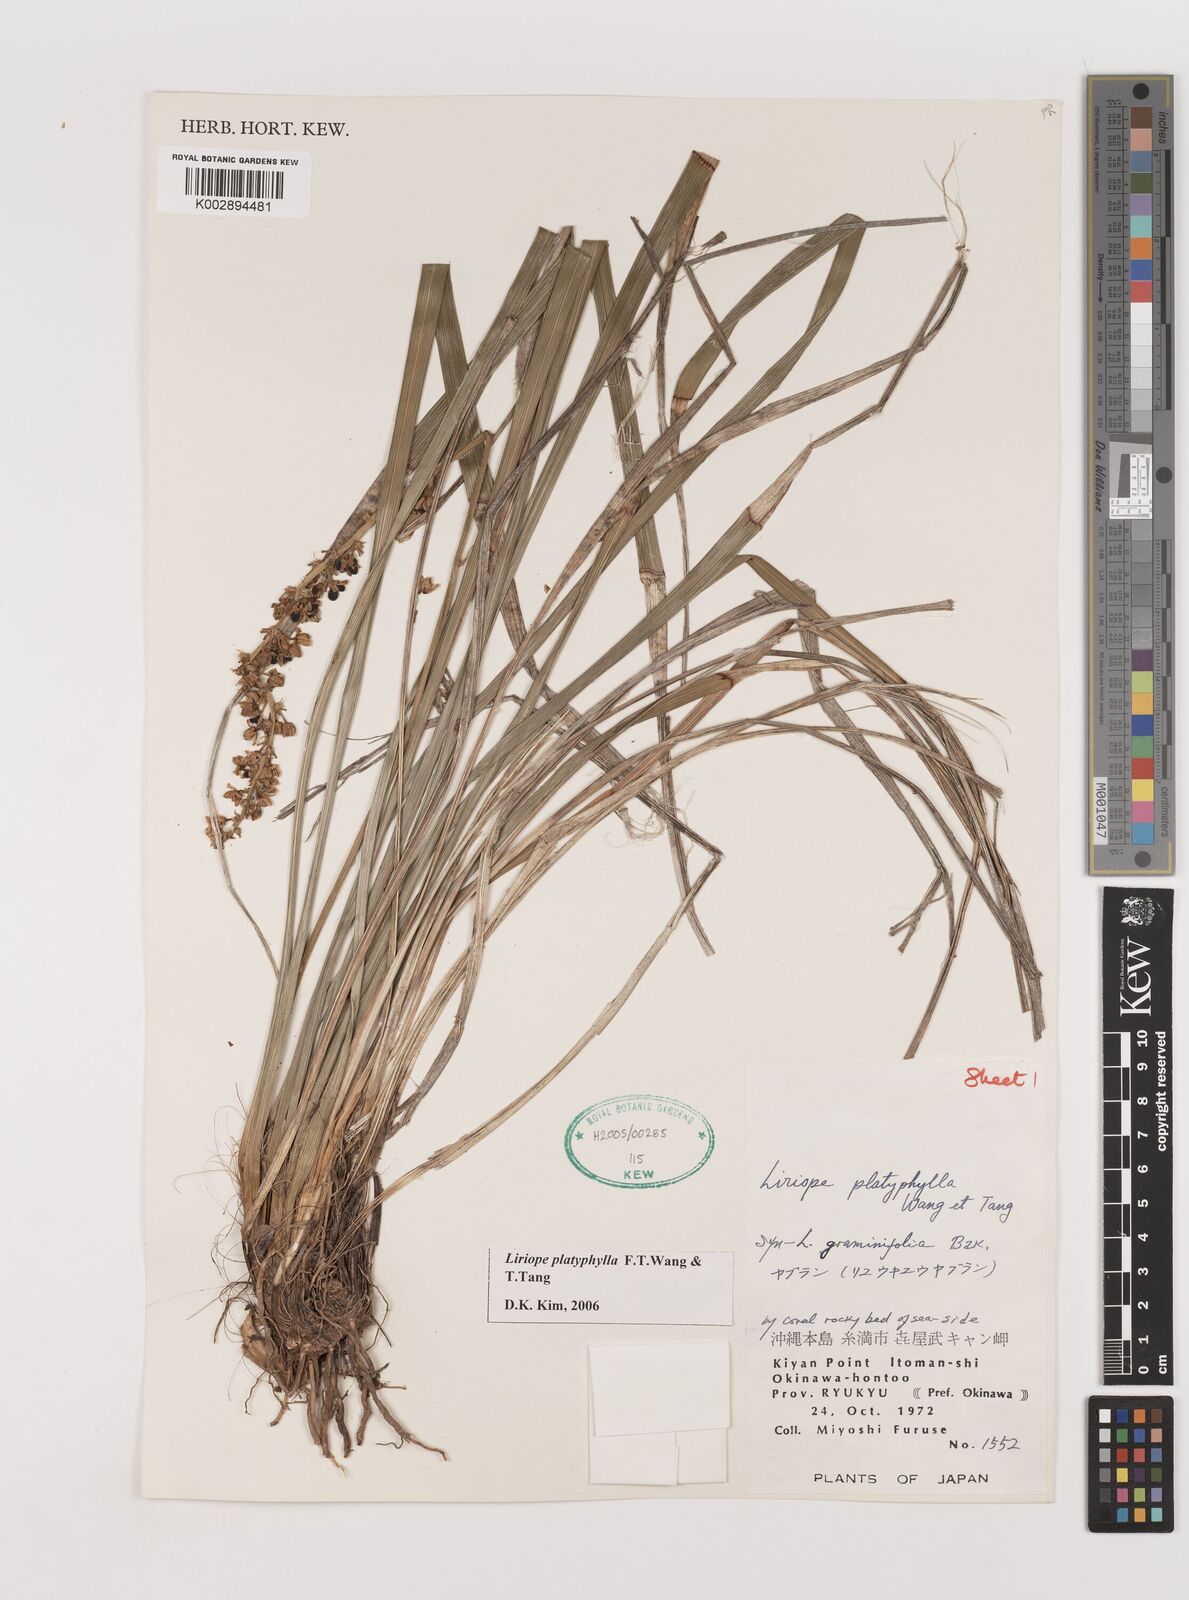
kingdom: Plantae
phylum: Tracheophyta
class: Liliopsida
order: Asparagales
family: Asparagaceae
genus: Liriope
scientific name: Liriope muscari
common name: Big blue lilyturf
